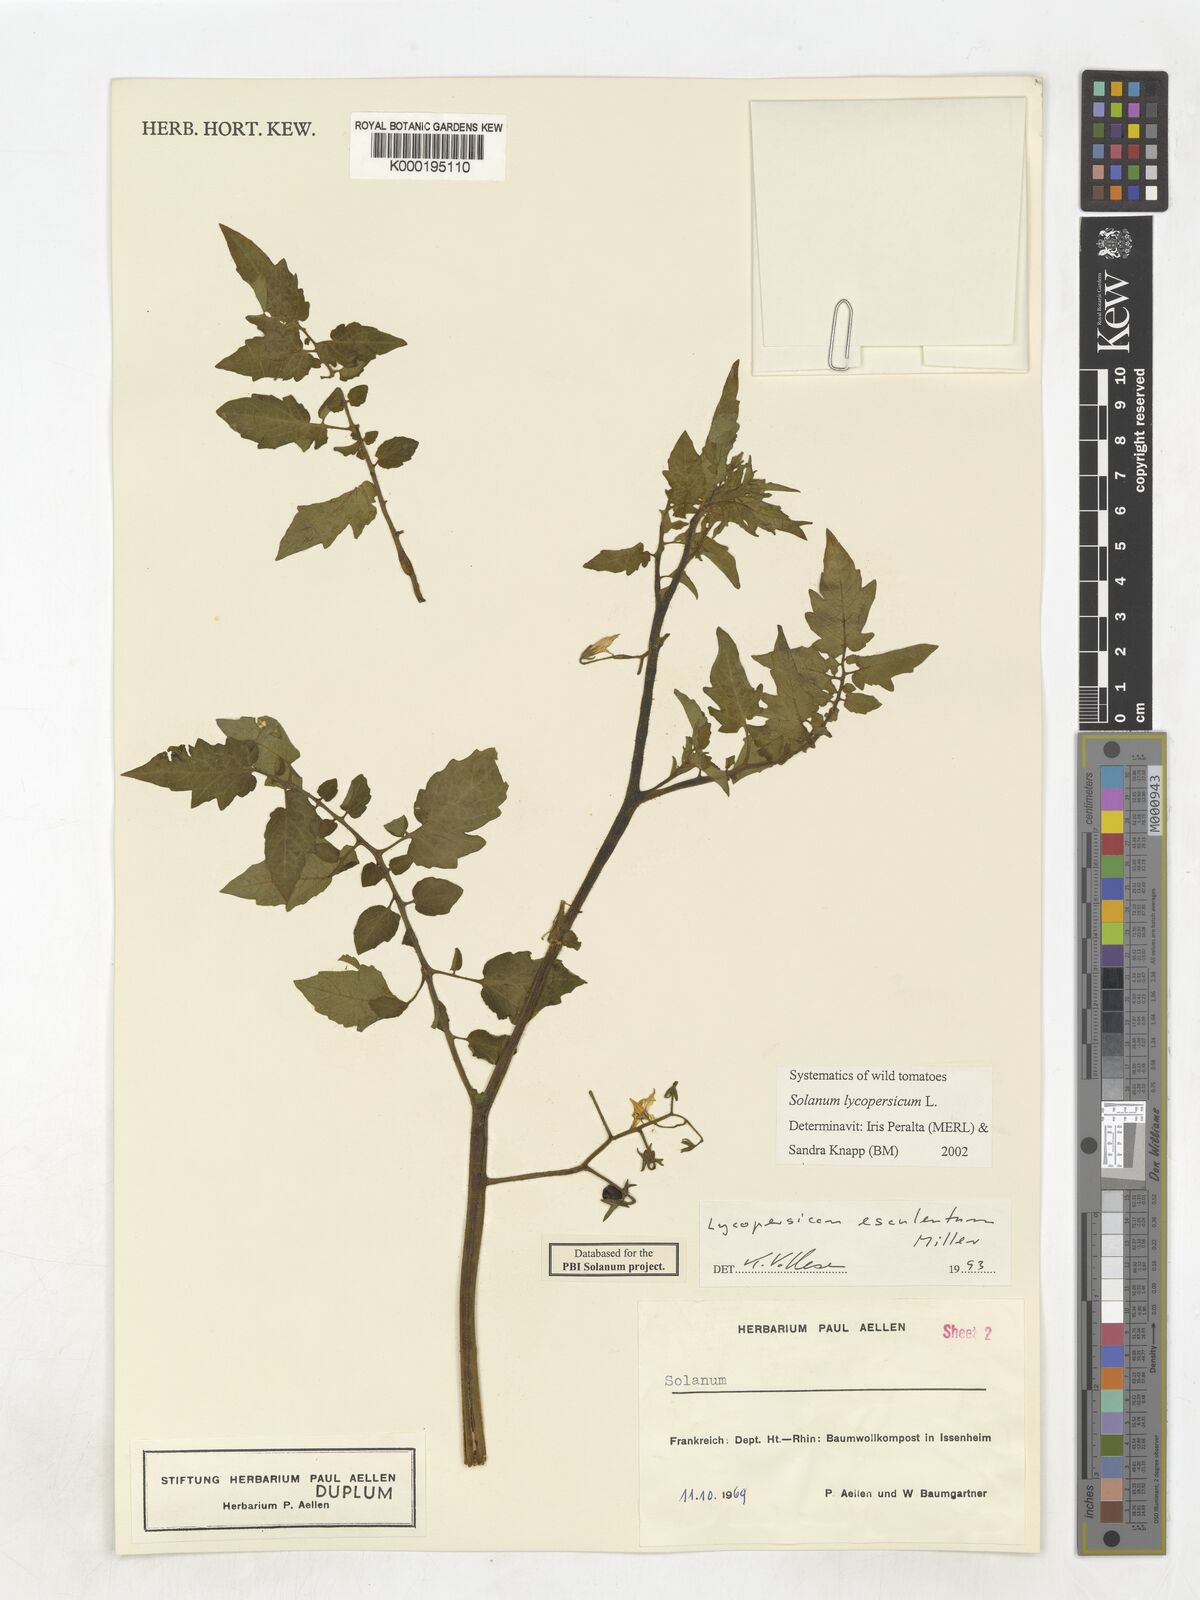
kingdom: Plantae
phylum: Tracheophyta
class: Magnoliopsida
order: Solanales
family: Solanaceae
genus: Solanum
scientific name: Solanum lycopersicum
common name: Garden tomato
